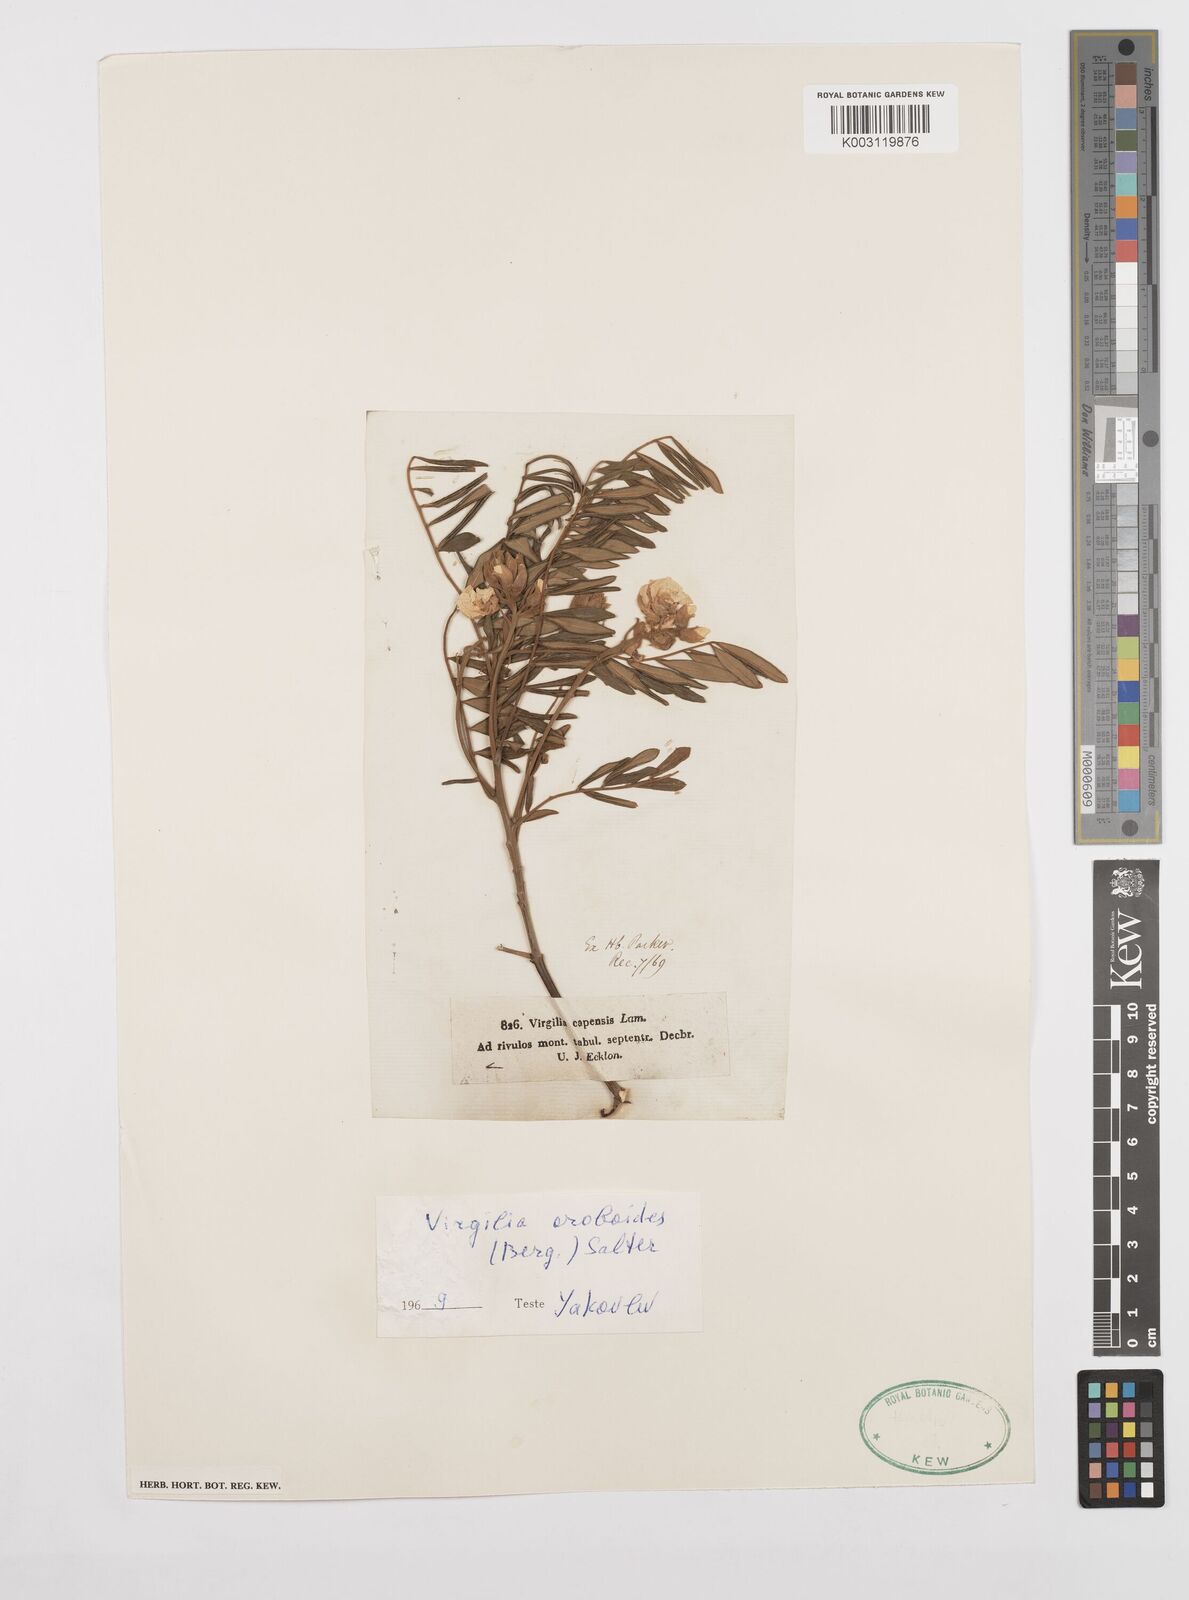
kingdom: Plantae
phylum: Tracheophyta
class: Magnoliopsida
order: Fabales
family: Fabaceae
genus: Virgilia
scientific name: Virgilia oroboides
